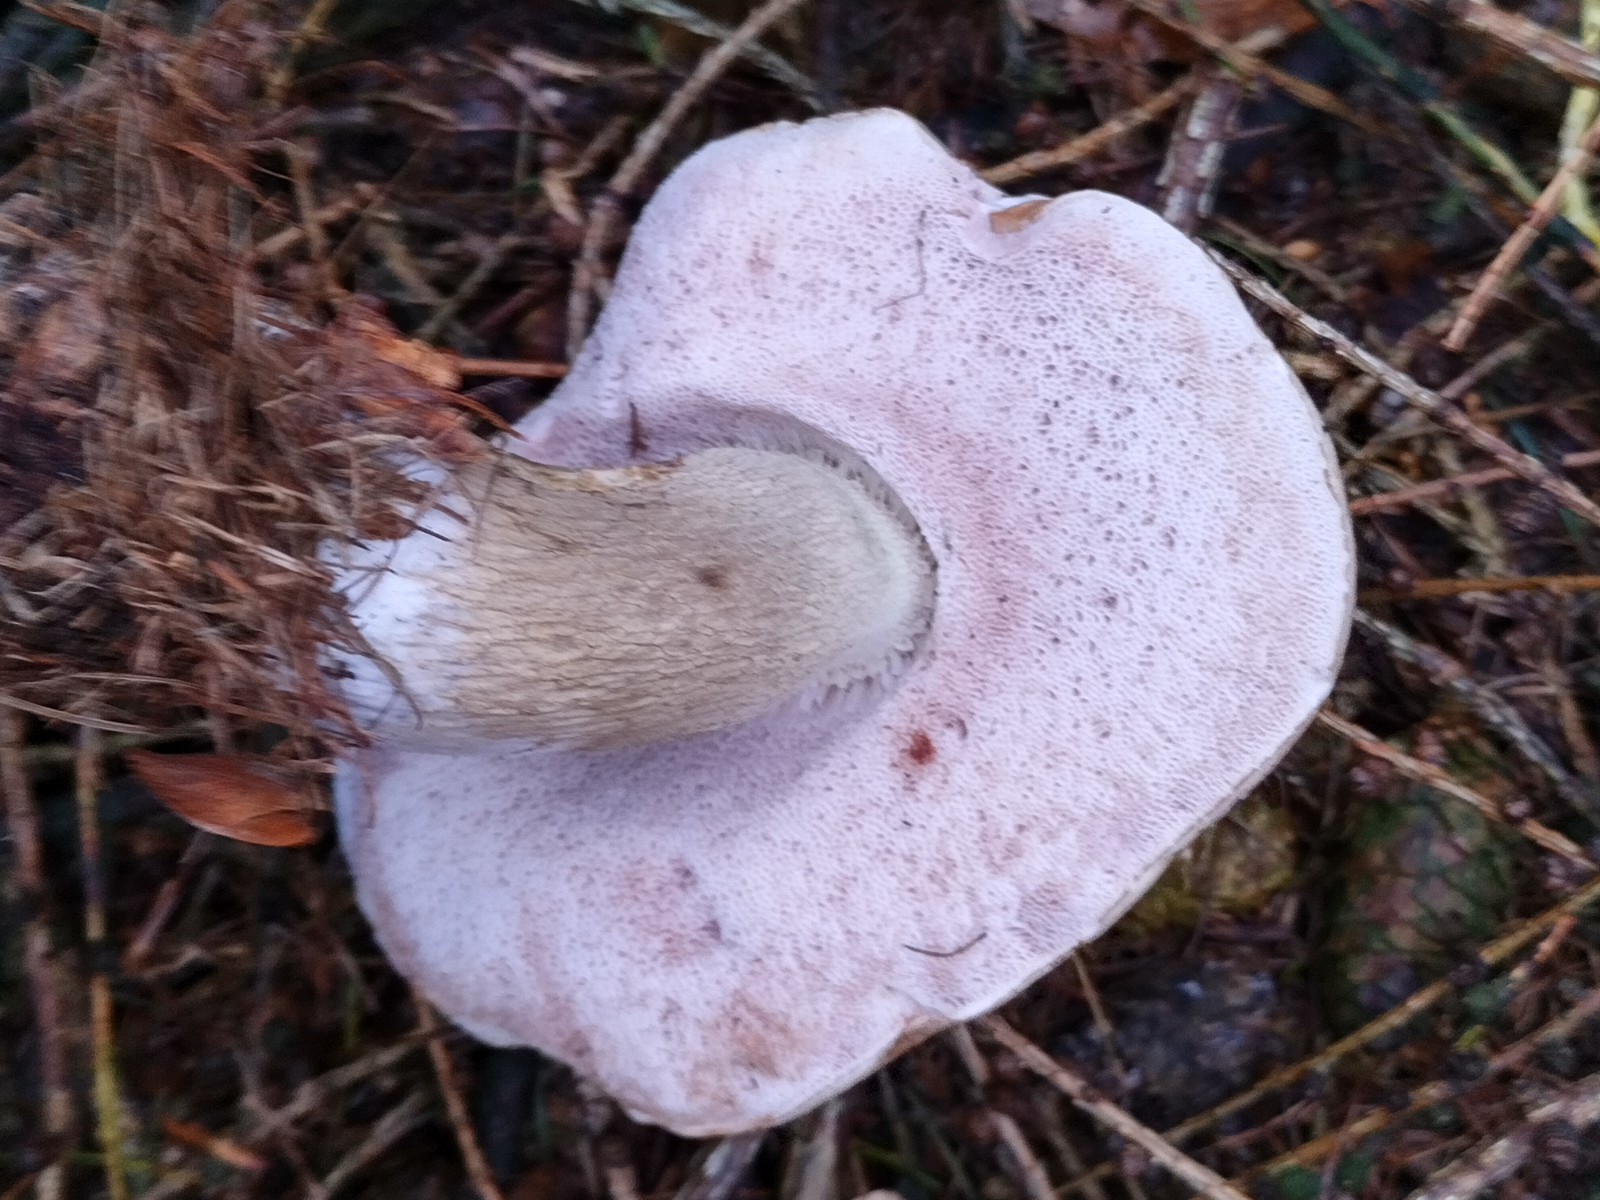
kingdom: Fungi
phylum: Basidiomycota
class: Agaricomycetes
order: Boletales
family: Boletaceae
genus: Tylopilus
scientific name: Tylopilus felleus
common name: galderørhat
